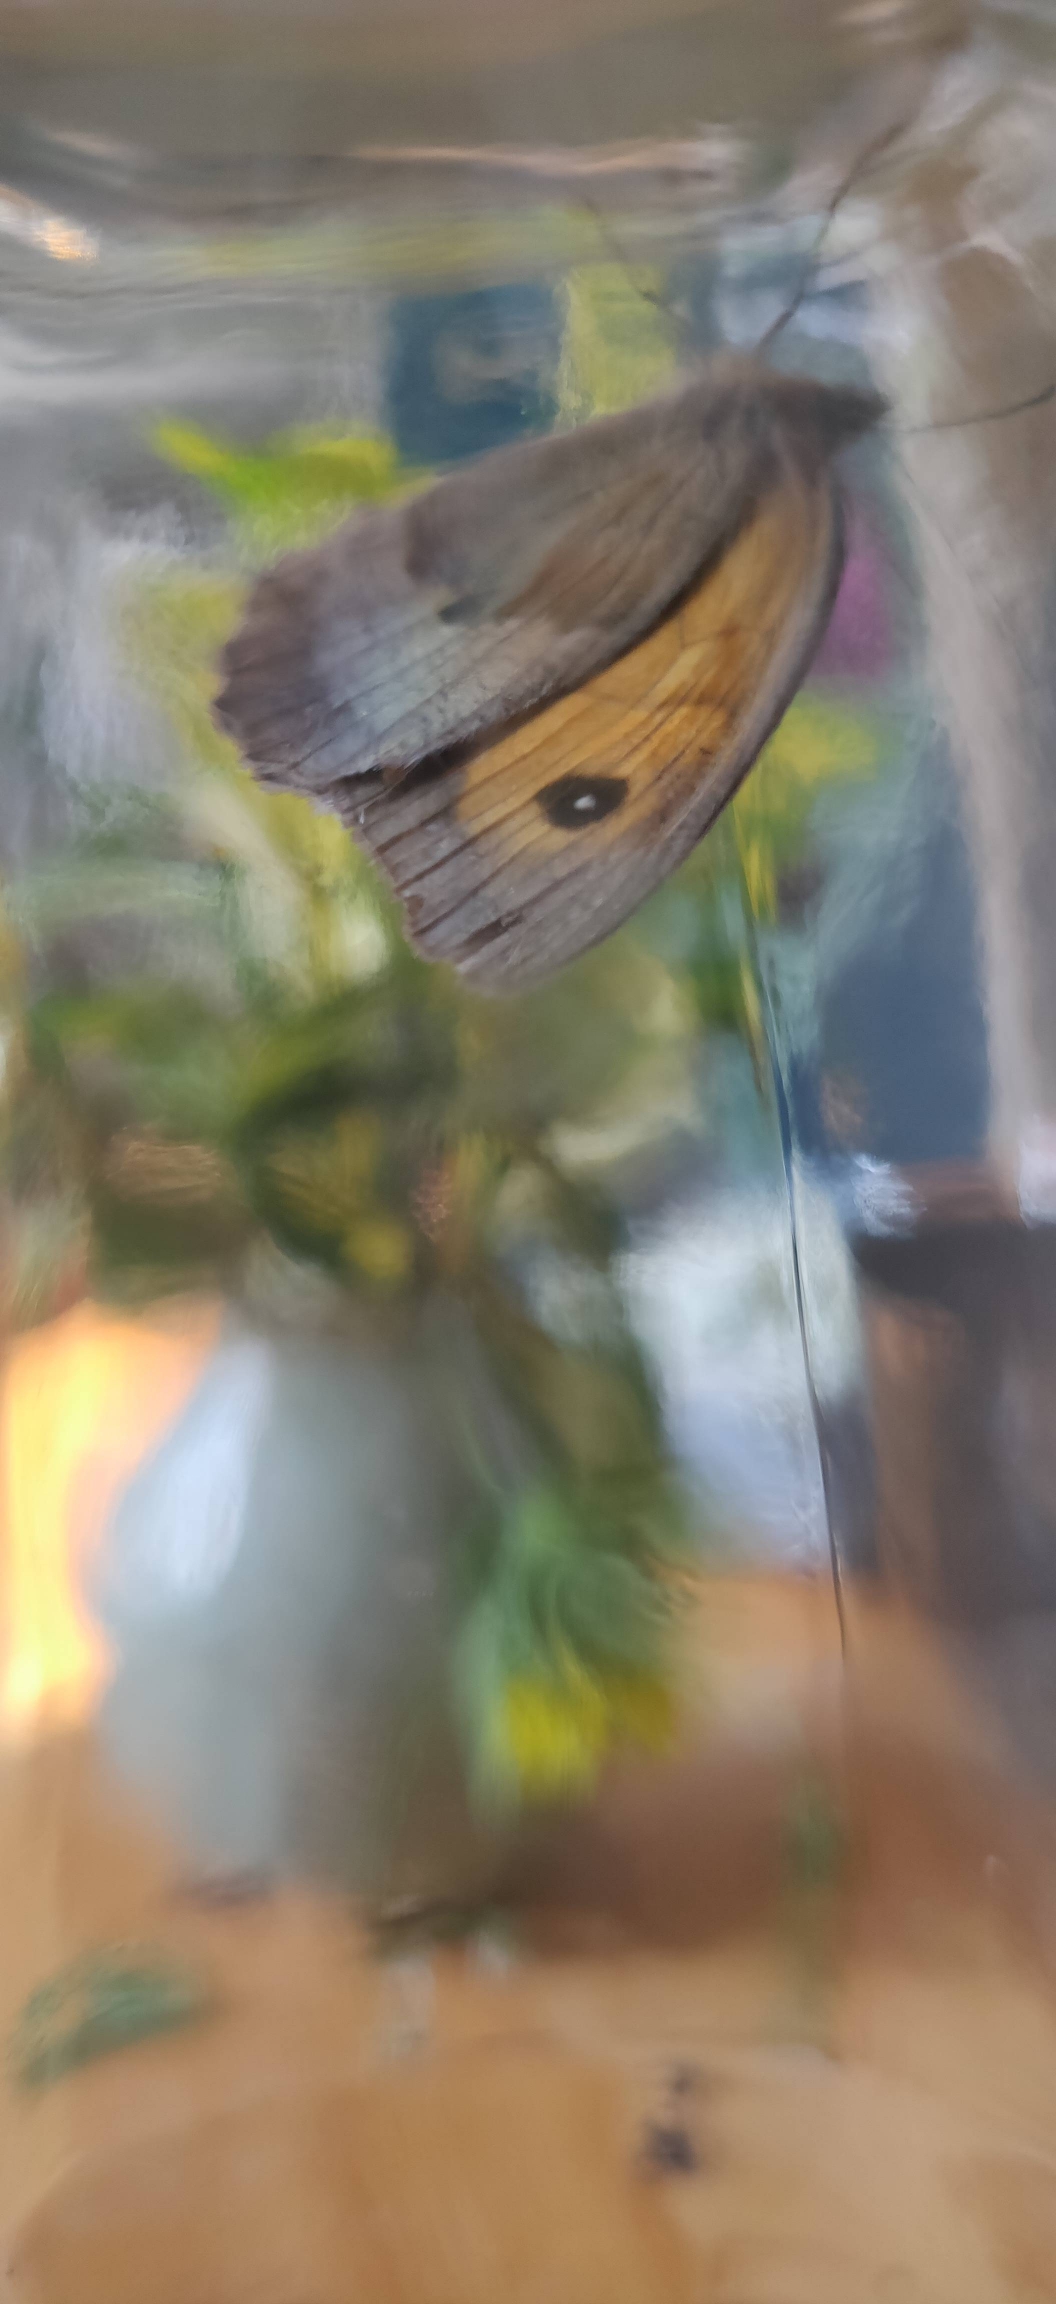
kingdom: Animalia
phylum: Arthropoda
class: Insecta
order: Lepidoptera
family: Nymphalidae
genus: Maniola
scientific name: Maniola jurtina
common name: Græsrandøje
